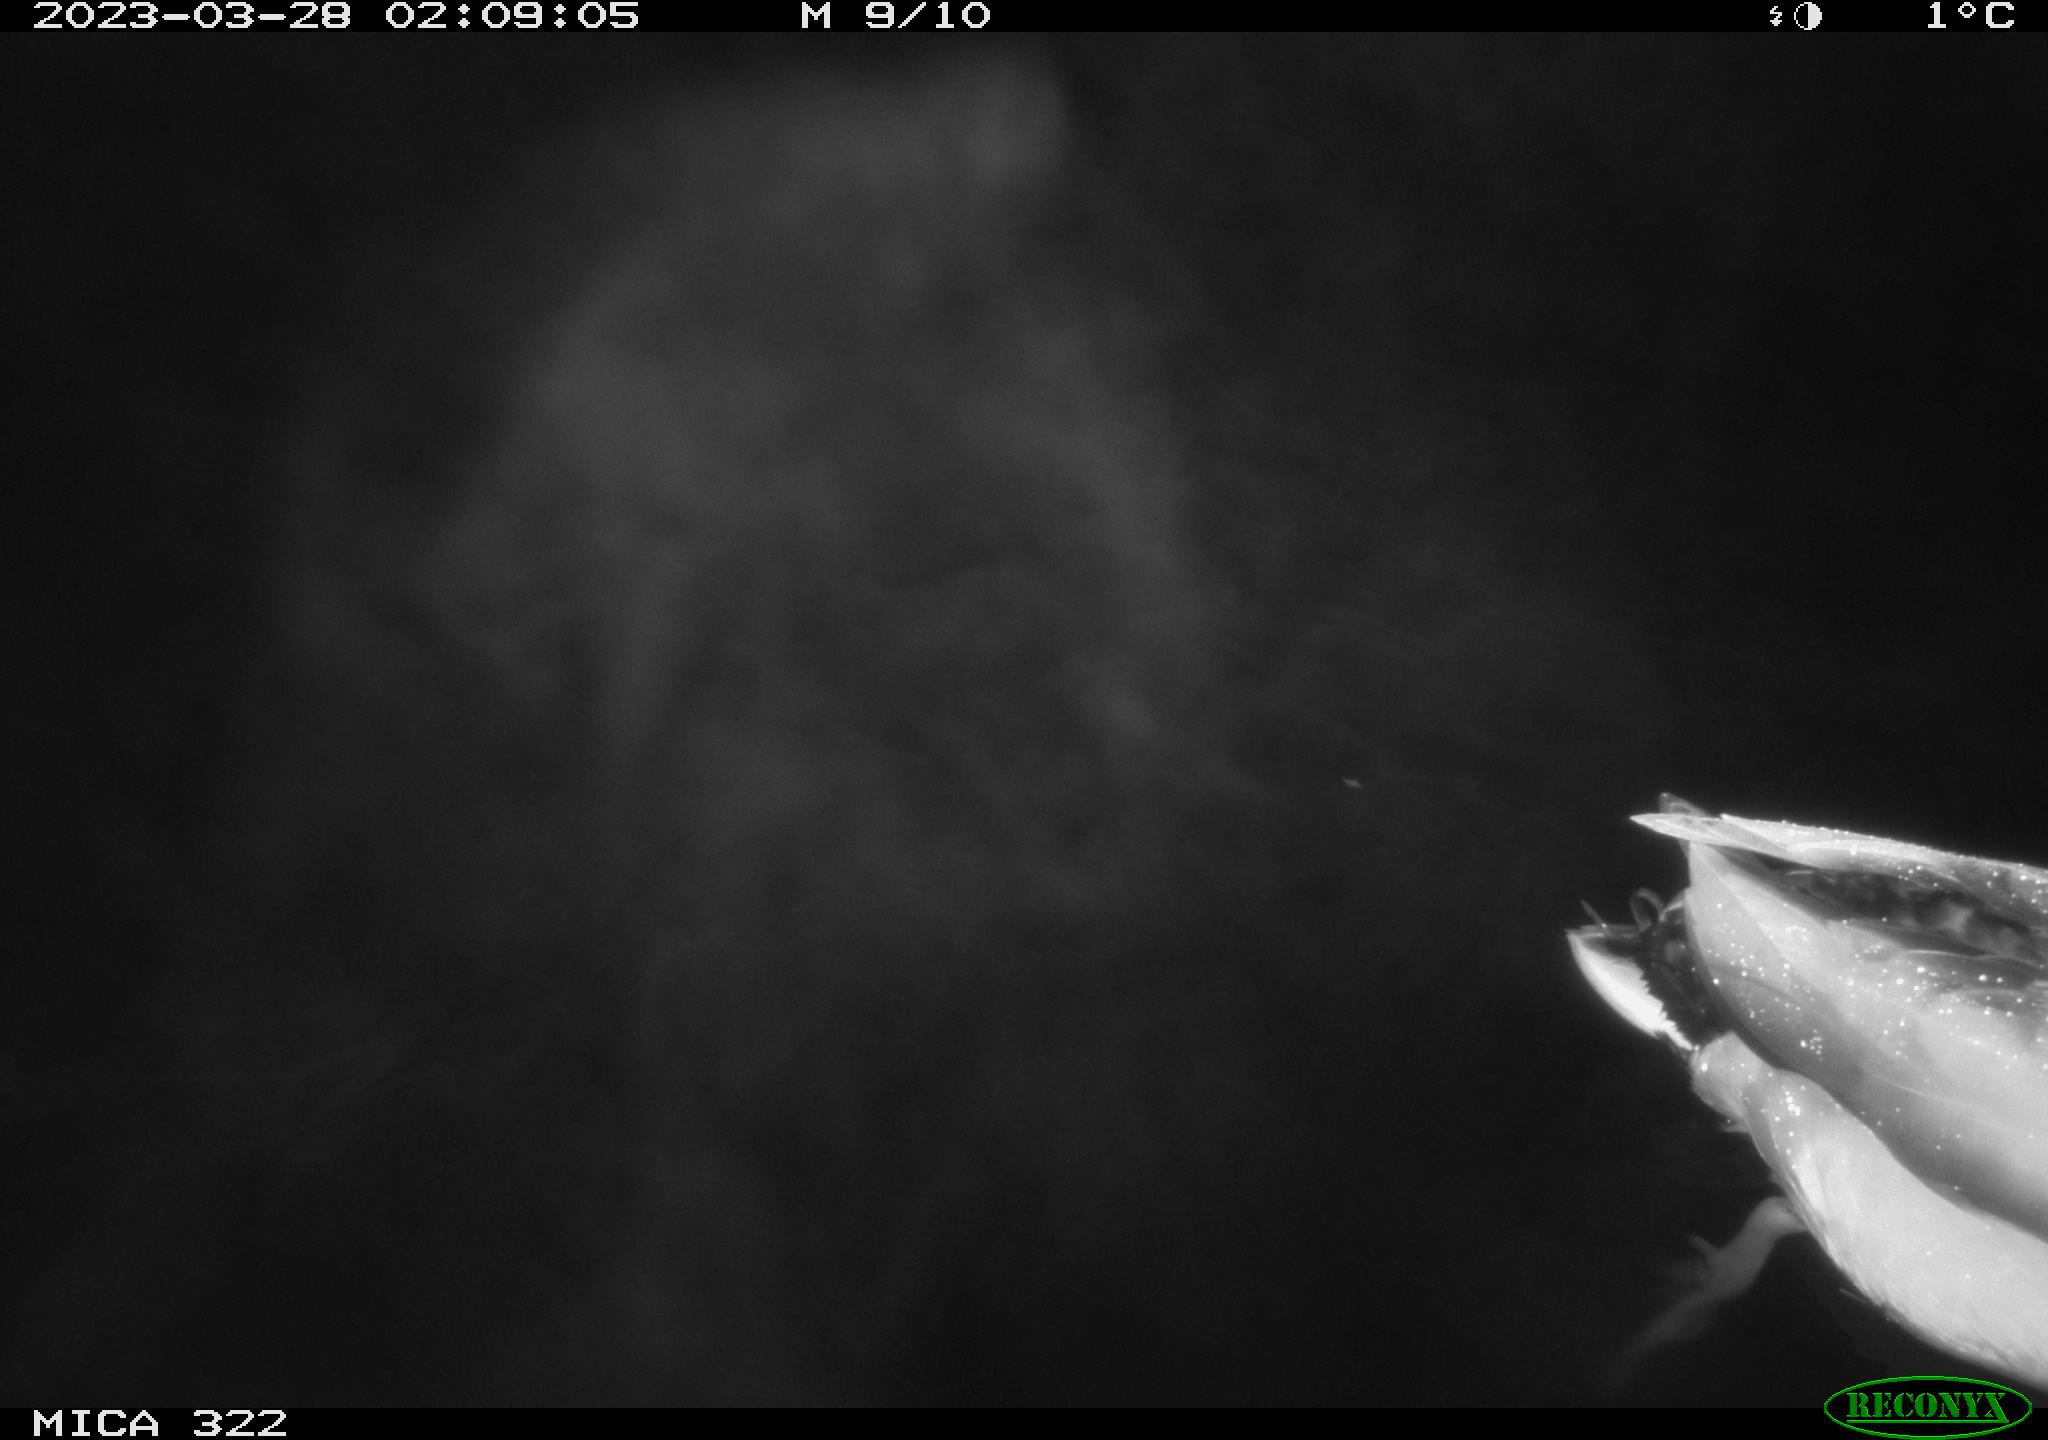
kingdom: Animalia
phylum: Chordata
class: Aves
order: Anseriformes
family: Anatidae
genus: Anas
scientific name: Anas
